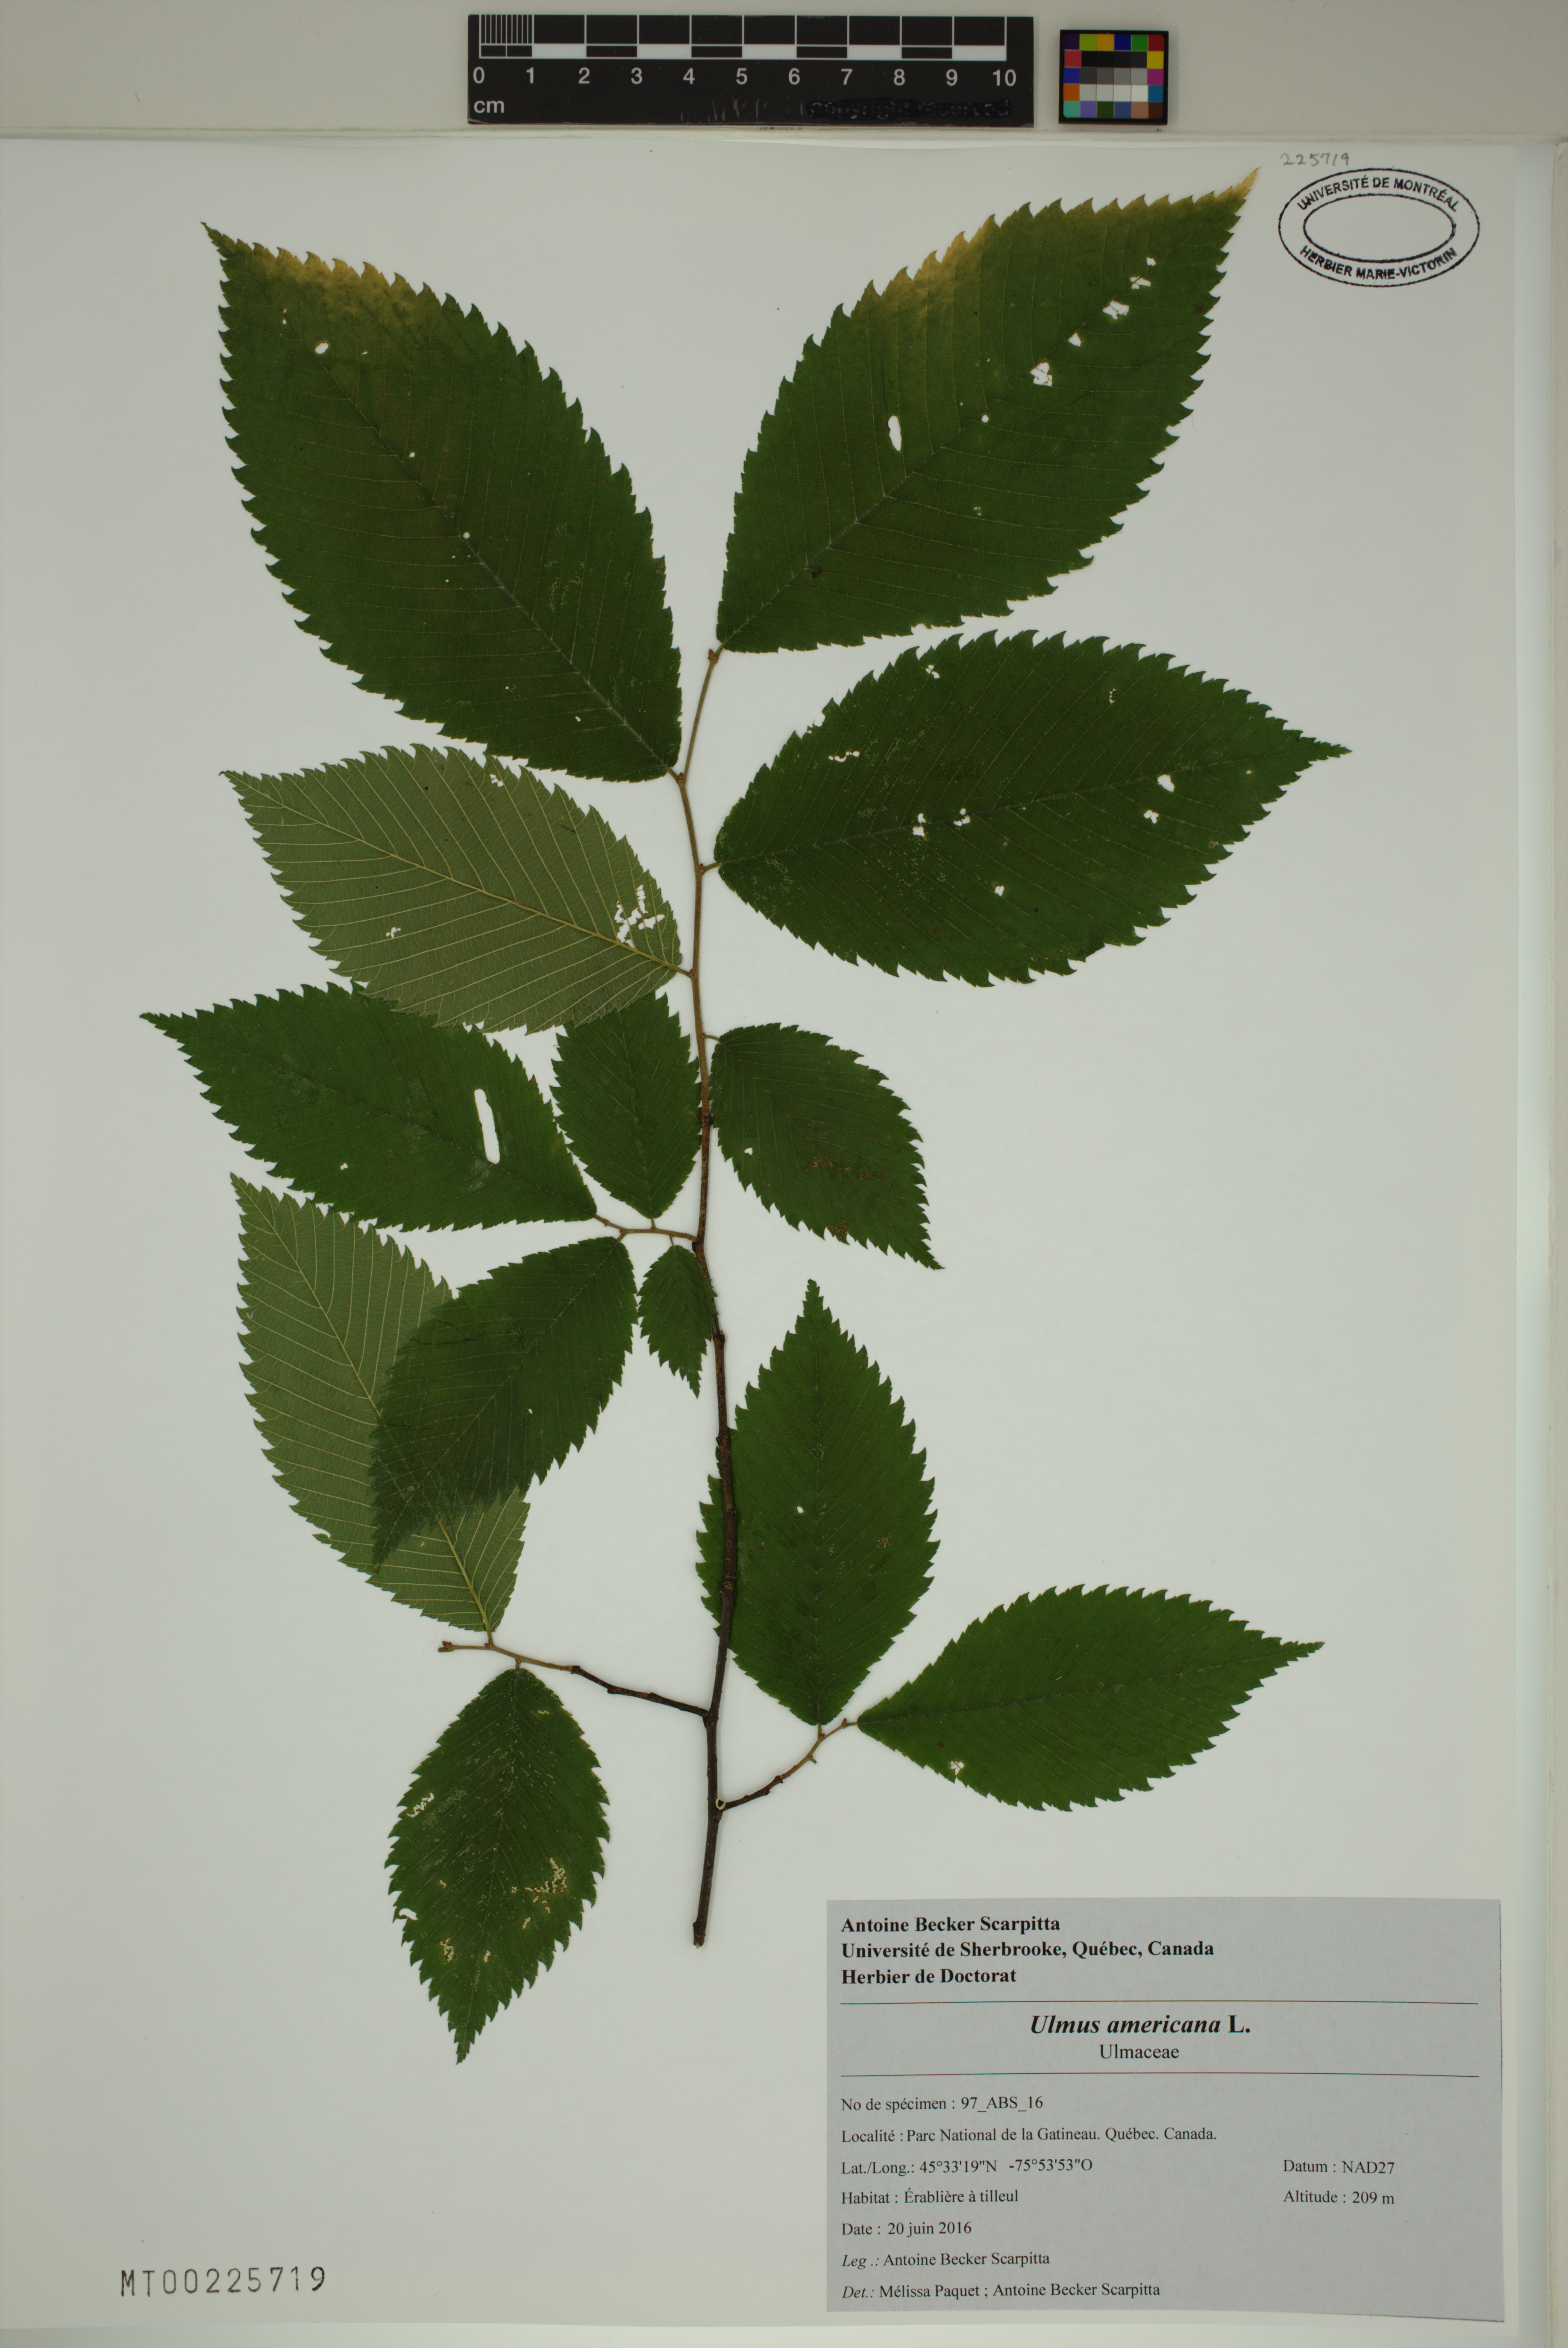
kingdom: Plantae
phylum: Tracheophyta
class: Magnoliopsida
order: Rosales
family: Ulmaceae
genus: Ulmus
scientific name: Ulmus americana
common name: American elm
